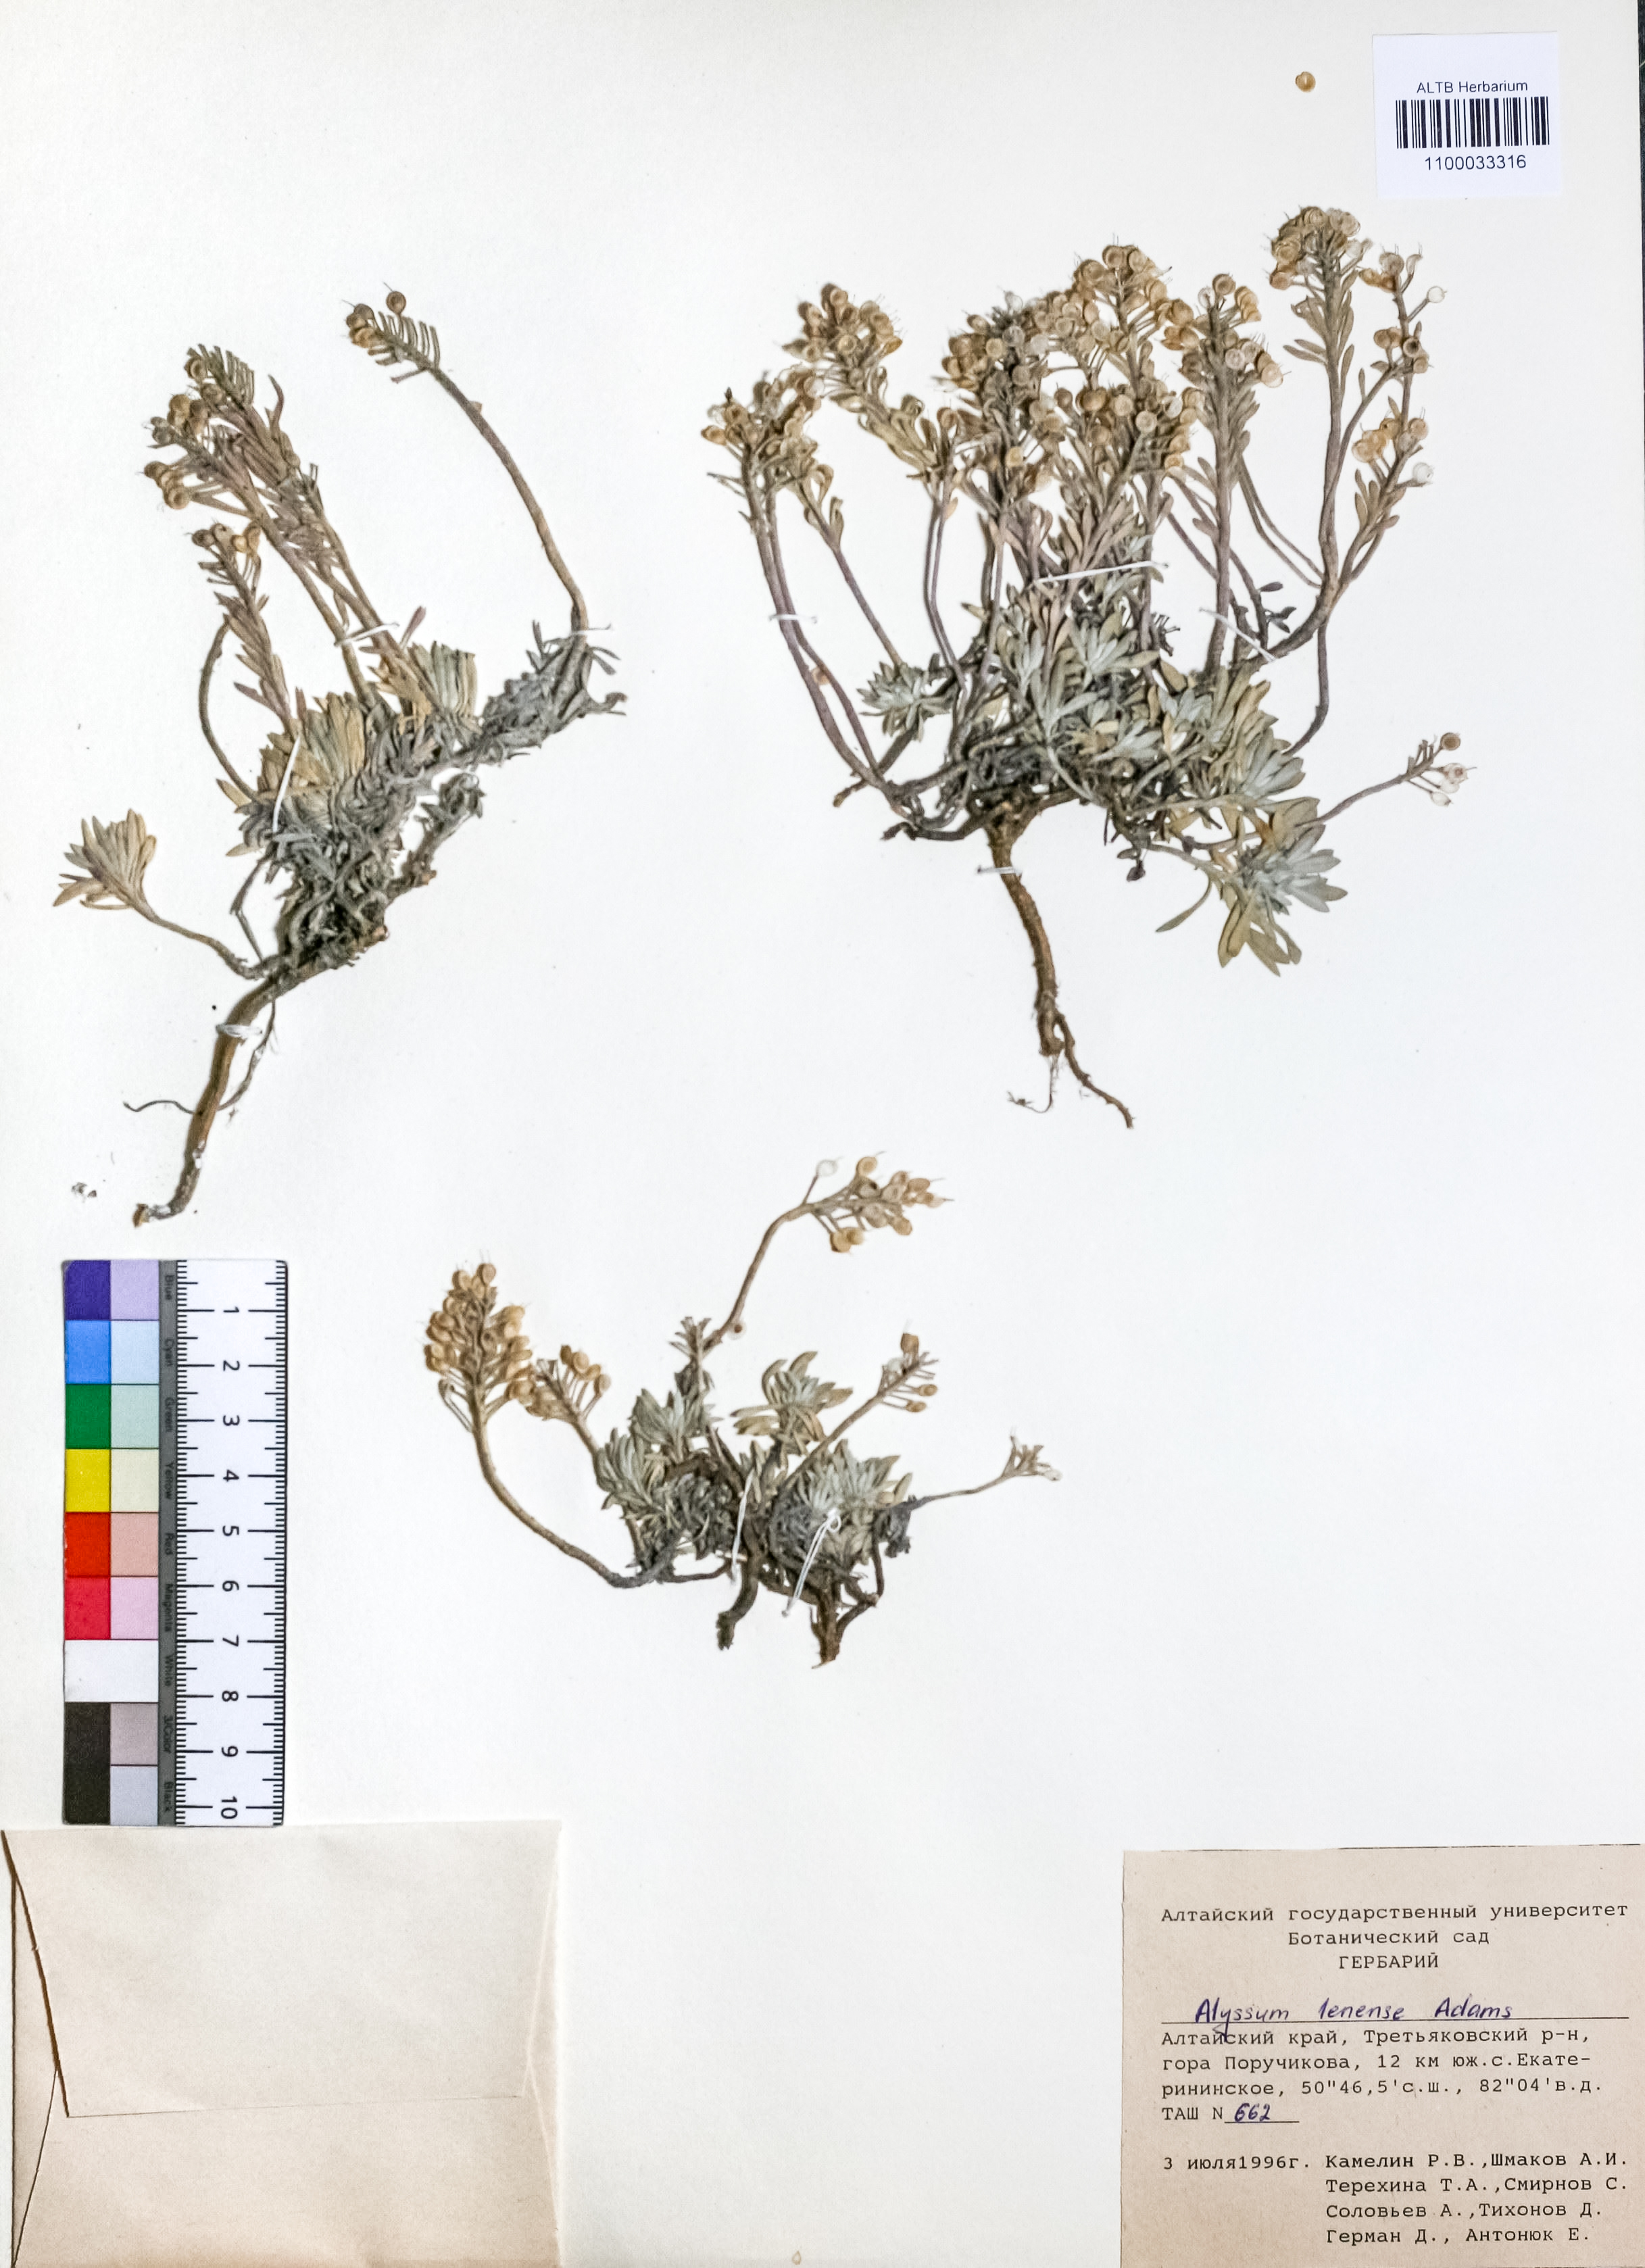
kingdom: Plantae
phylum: Tracheophyta
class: Magnoliopsida
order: Brassicales
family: Brassicaceae
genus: Alyssum
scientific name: Alyssum lenense
